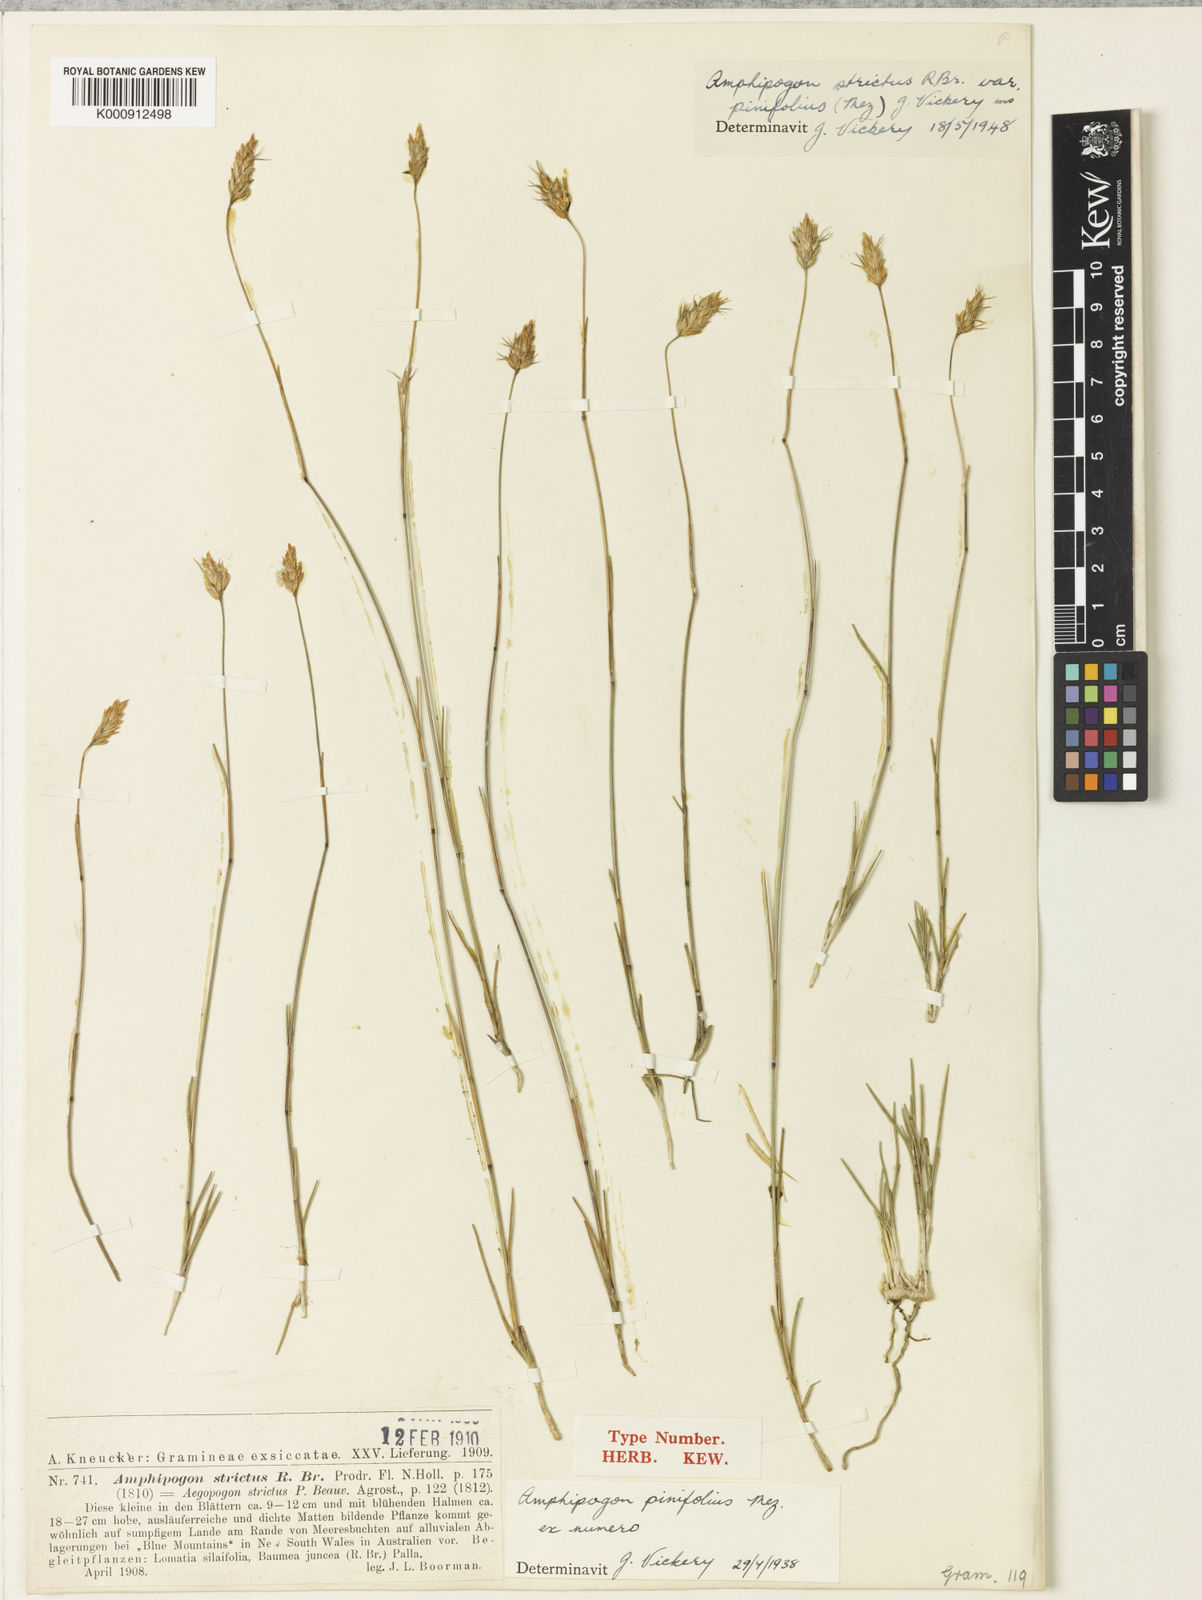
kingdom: Plantae
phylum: Tracheophyta
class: Liliopsida
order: Poales
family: Poaceae
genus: Amphipogon
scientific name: Amphipogon strictus
